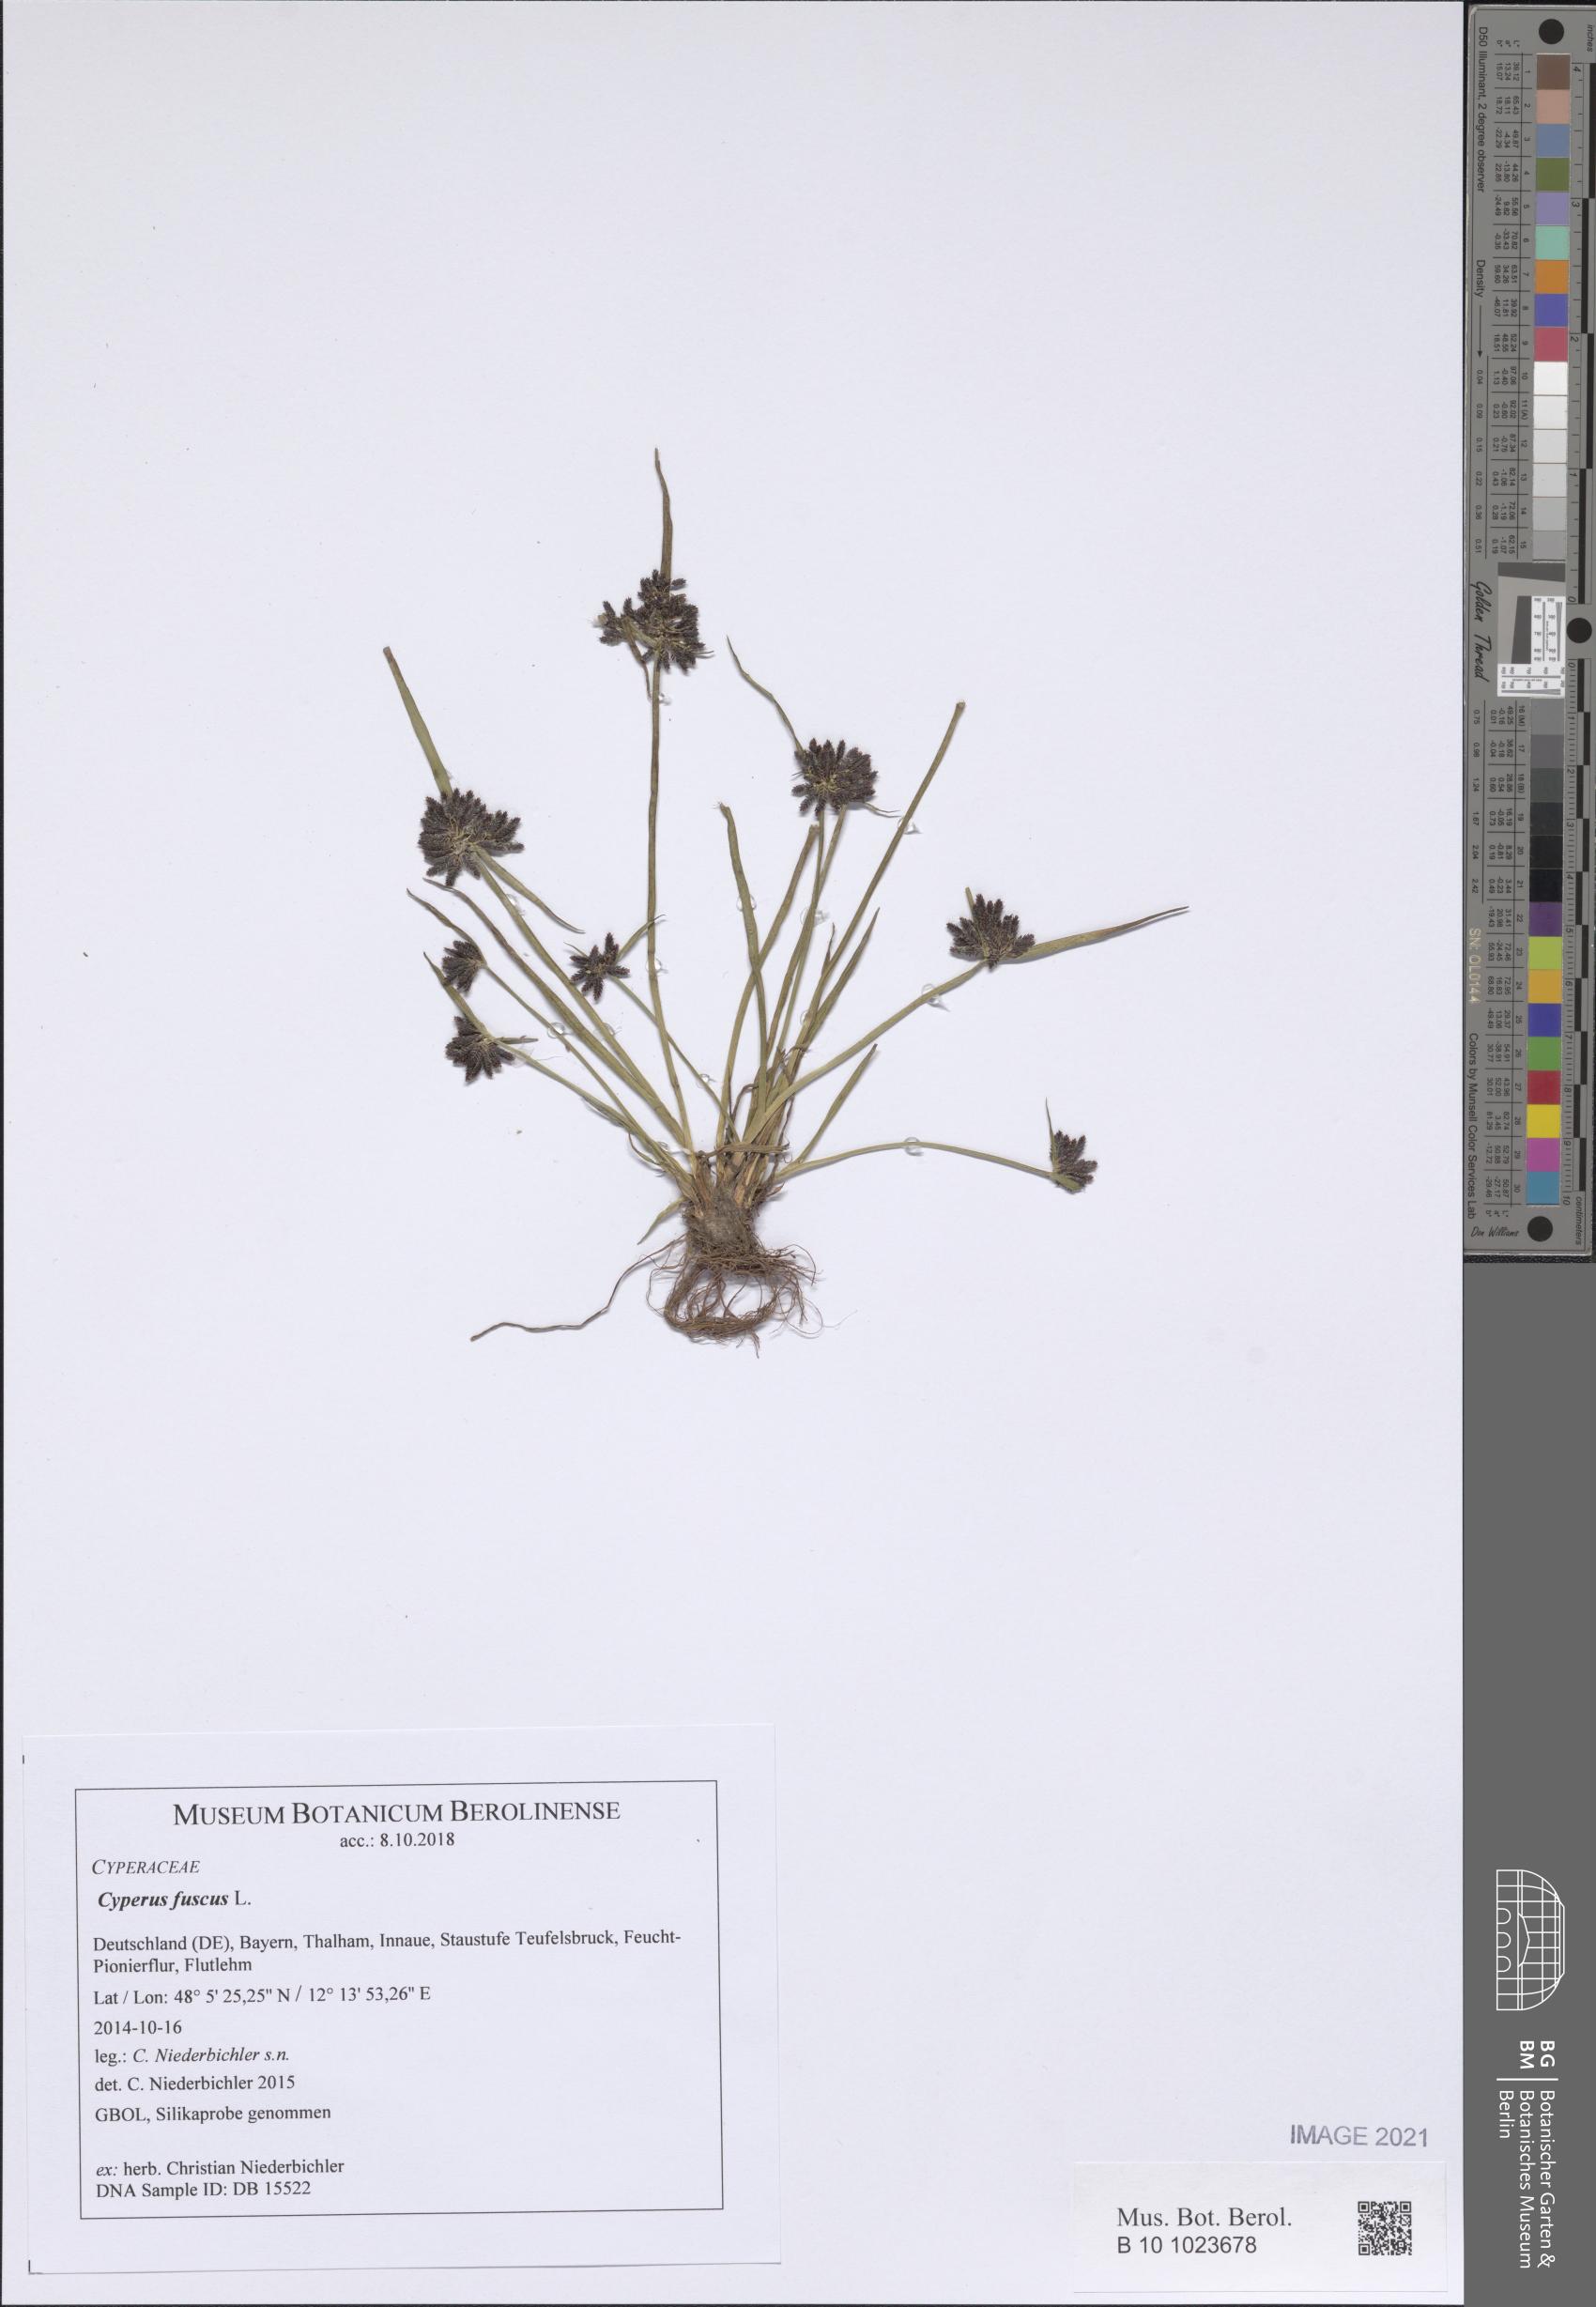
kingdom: Plantae
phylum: Tracheophyta
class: Liliopsida
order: Poales
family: Cyperaceae
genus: Cyperus
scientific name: Cyperus fuscus
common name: Brown galingale
